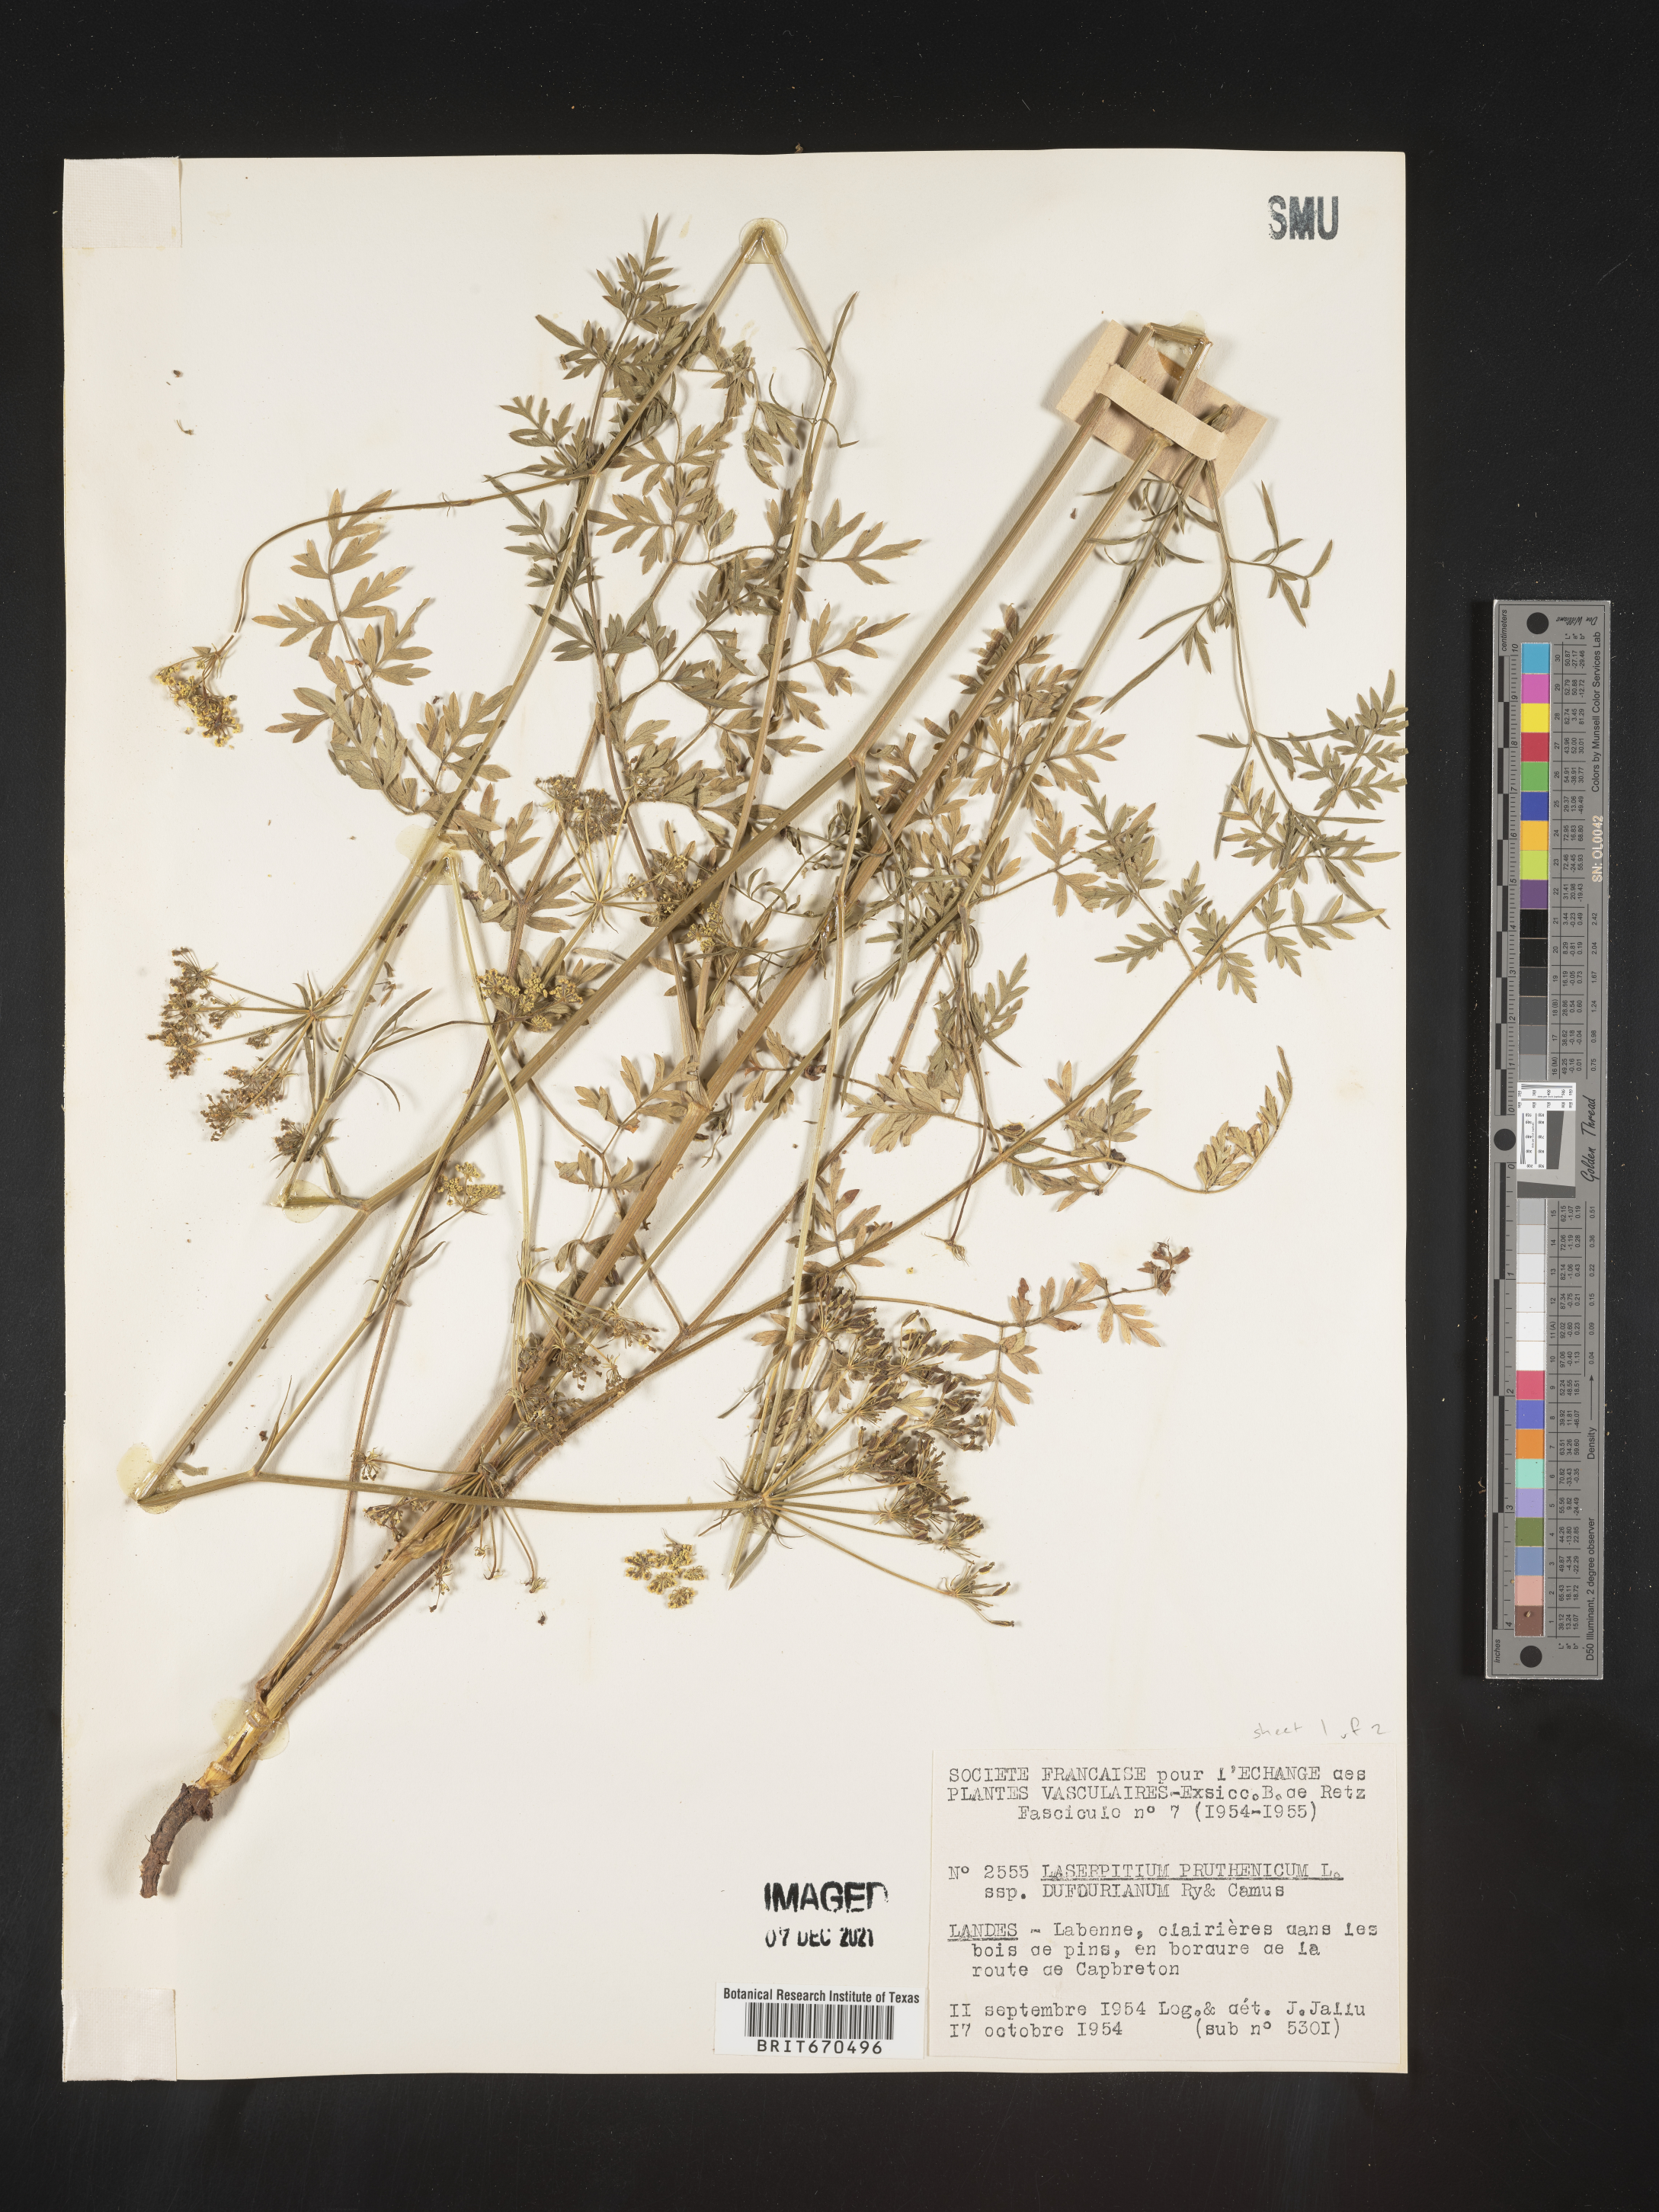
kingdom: Plantae
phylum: Tracheophyta
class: Magnoliopsida
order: Apiales
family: Apiaceae
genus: Laserpitium
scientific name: Laserpitium
